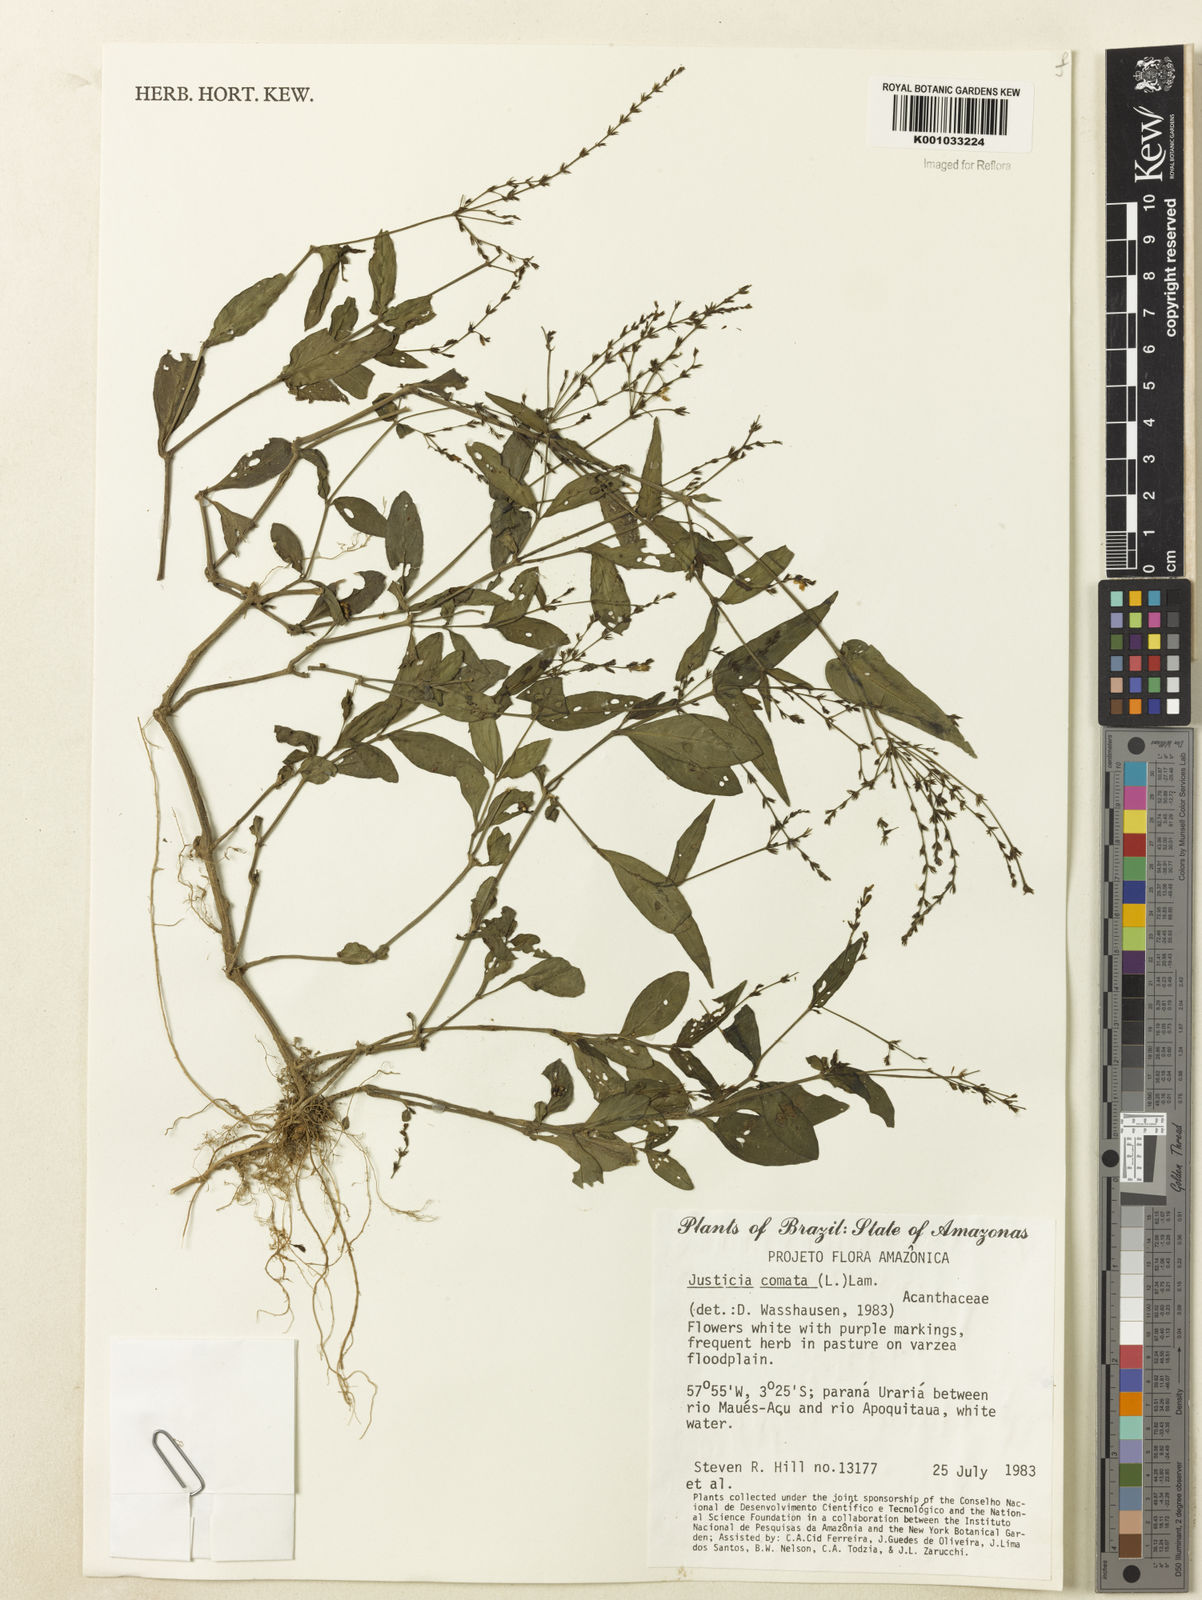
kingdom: Plantae
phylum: Tracheophyta
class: Magnoliopsida
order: Lamiales
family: Acanthaceae
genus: Dianthera
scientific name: Dianthera comata
